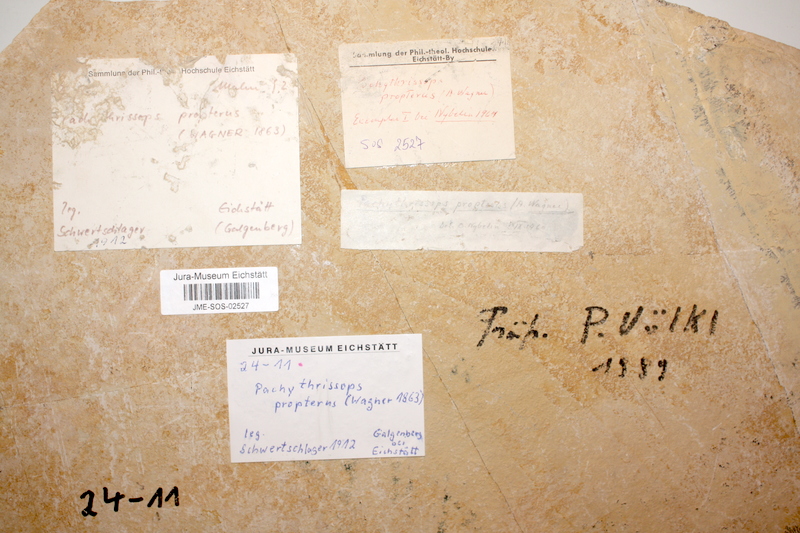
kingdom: Animalia
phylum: Chordata
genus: Pachythrissops
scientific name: Pachythrissops propterus
